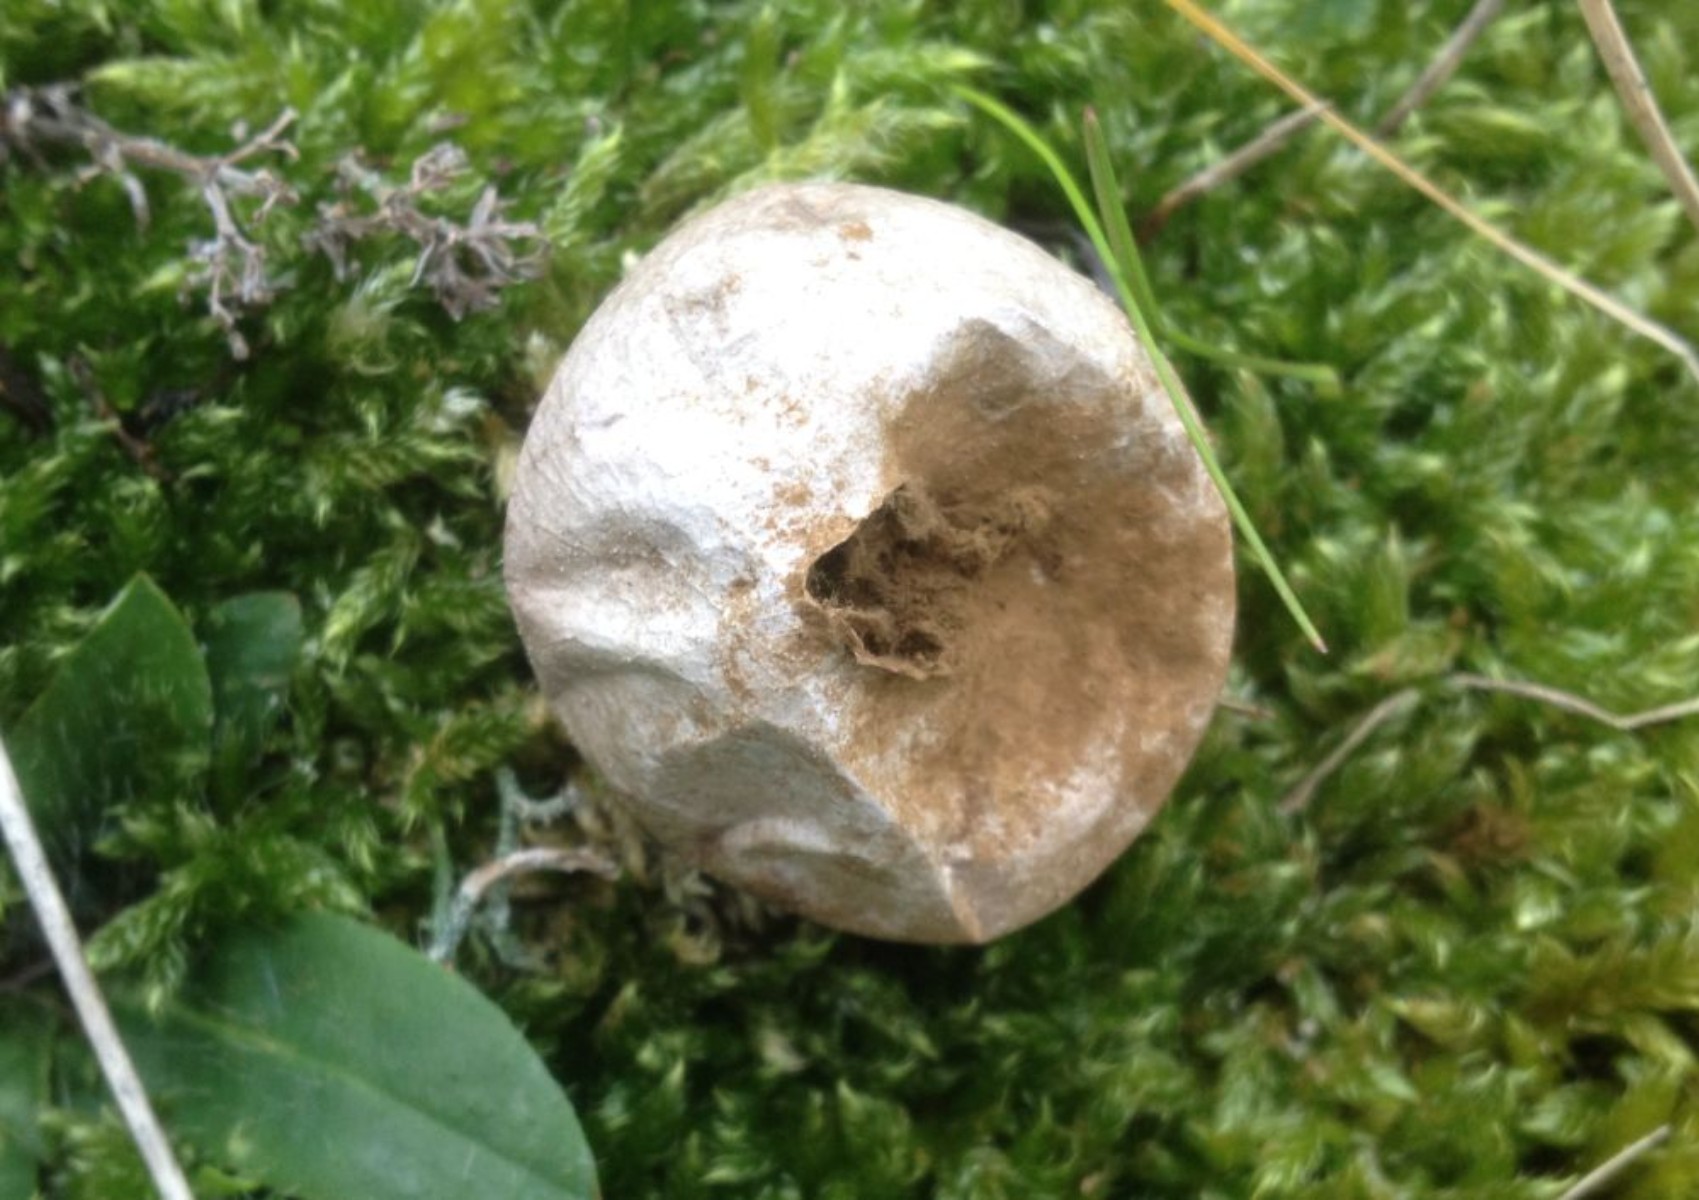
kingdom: Fungi
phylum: Basidiomycota
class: Agaricomycetes
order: Agaricales
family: Agaricaceae
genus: Lycoperdon
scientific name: Lycoperdon
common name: støvbold
